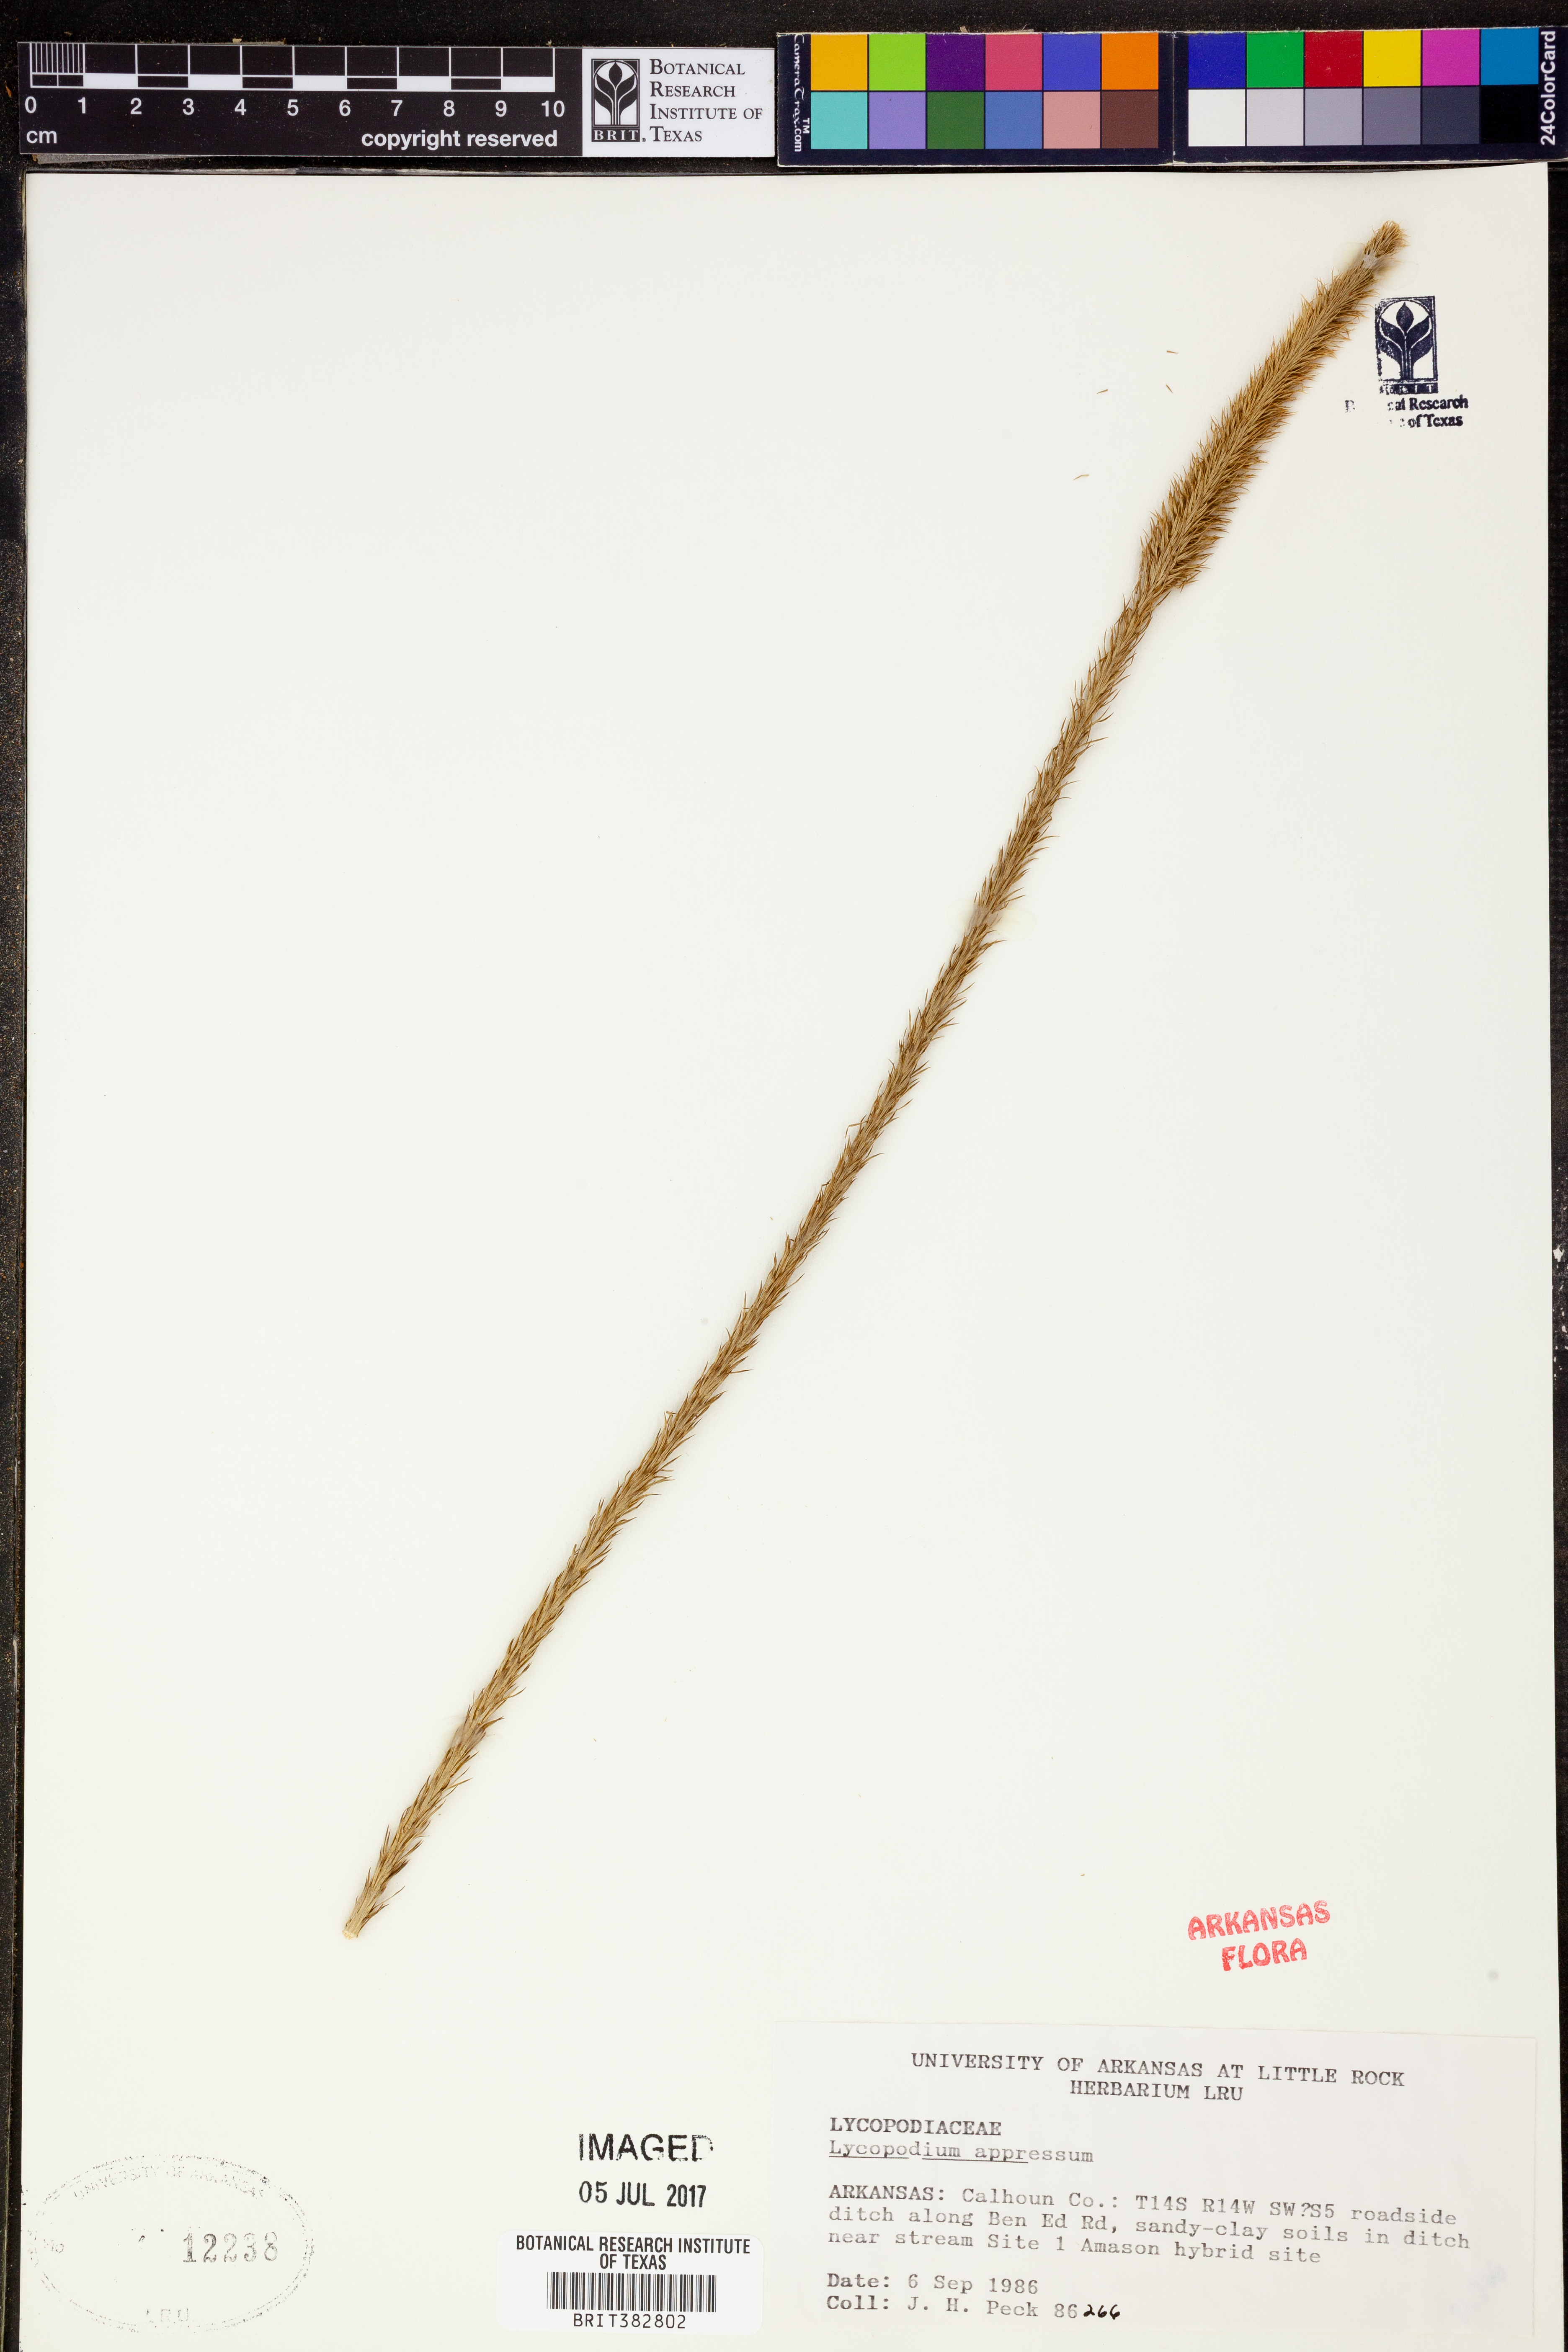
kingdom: Plantae
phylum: Tracheophyta
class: Lycopodiopsida
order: Lycopodiales
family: Lycopodiaceae
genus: Lycopodiella
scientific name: Lycopodiella appressa
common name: Appressed bog clubmoss
